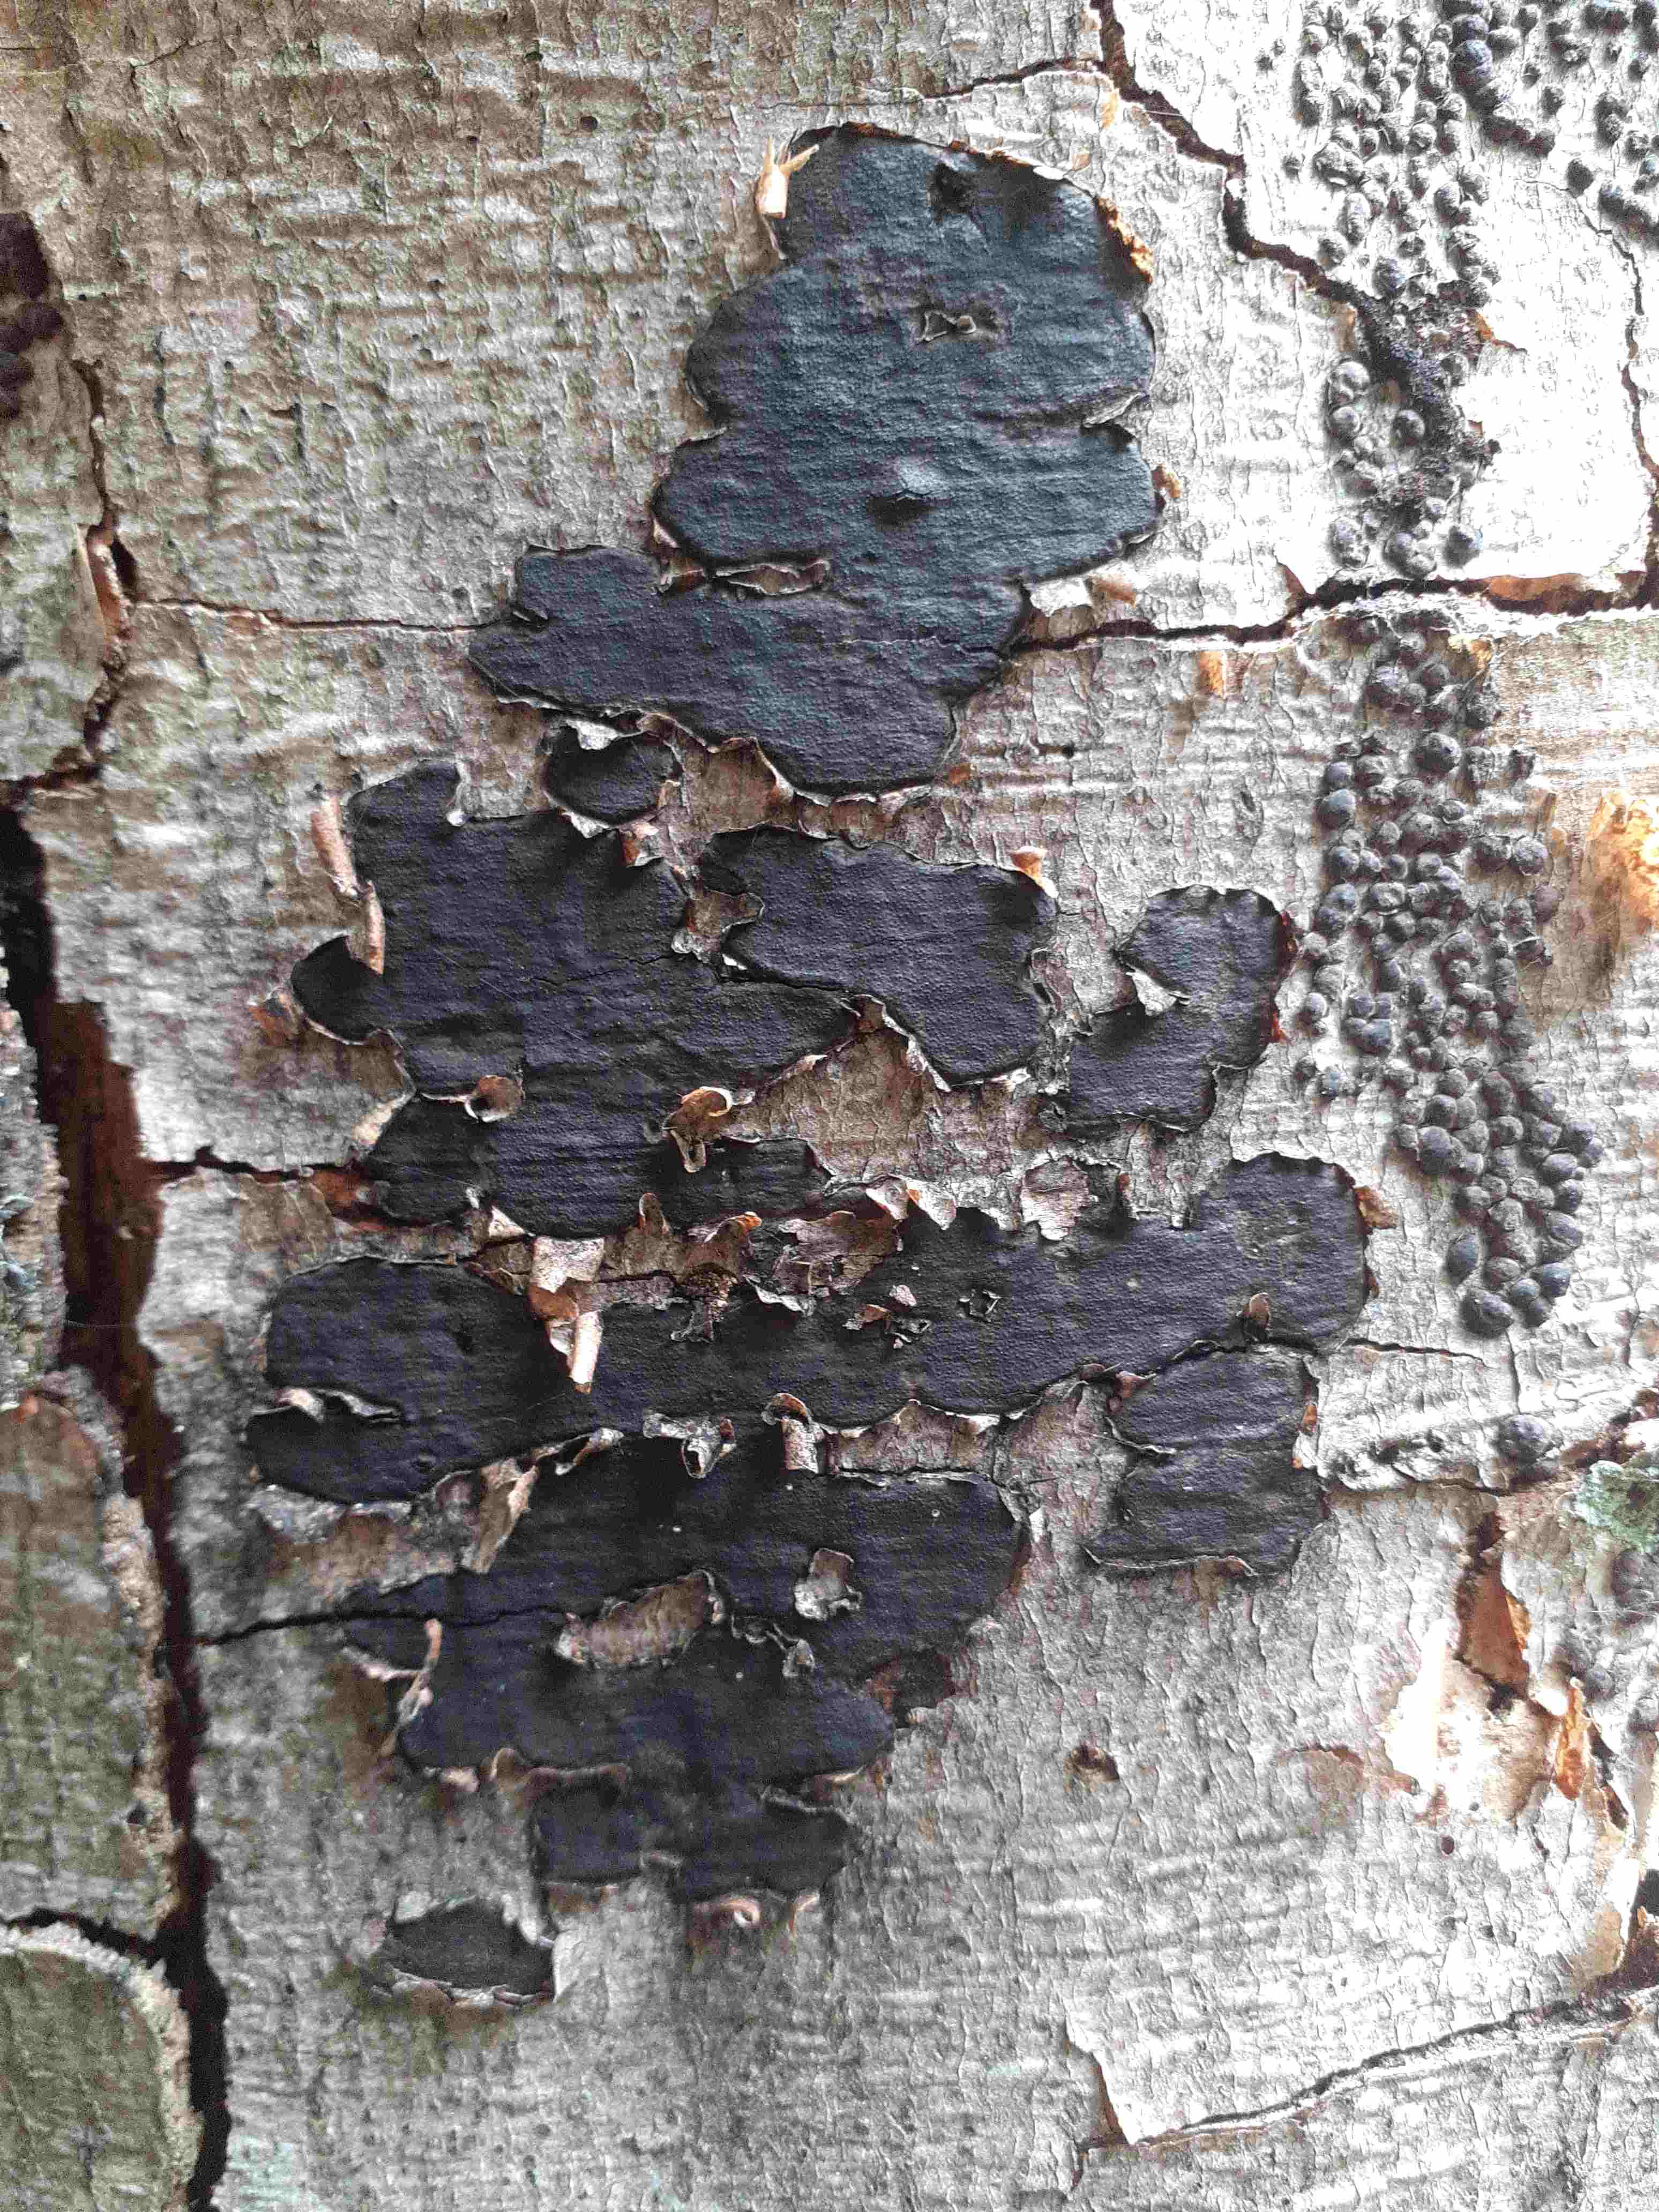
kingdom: Fungi
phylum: Ascomycota
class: Sordariomycetes
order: Xylariales
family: Graphostromataceae
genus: Biscogniauxia
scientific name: Biscogniauxia nummularia
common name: bøge-kulskive
